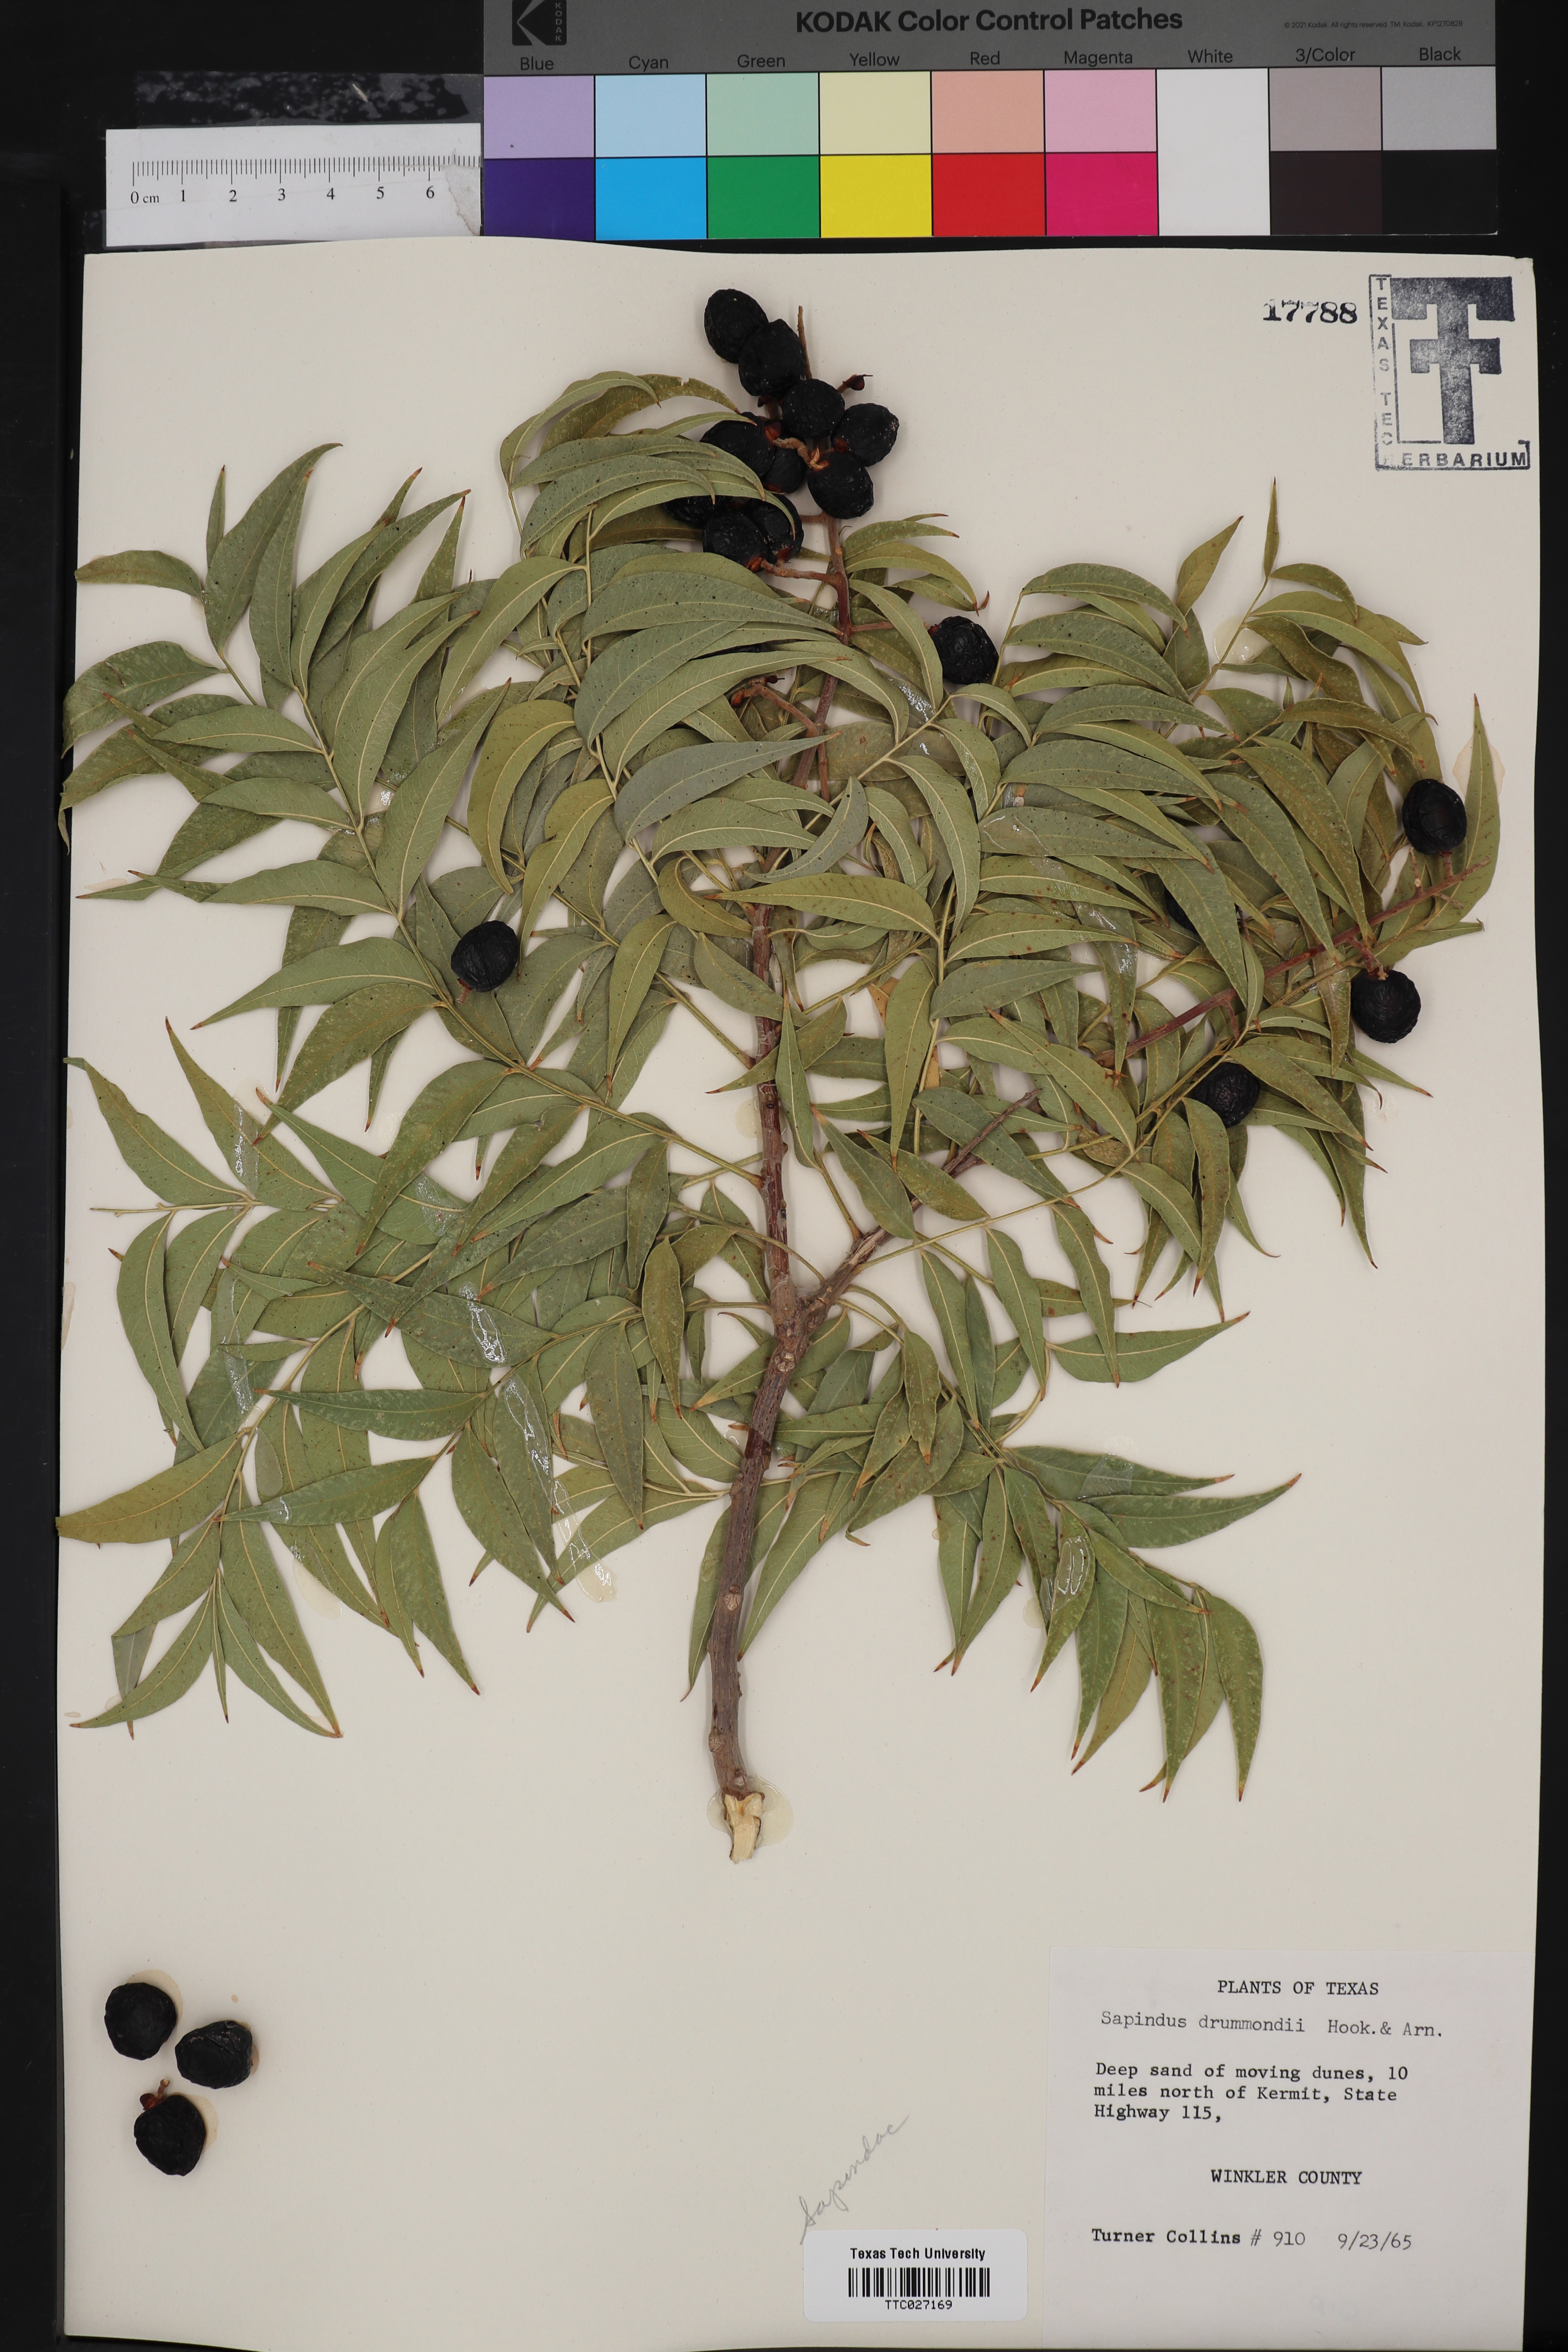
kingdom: Plantae
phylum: Tracheophyta
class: Magnoliopsida
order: Sapindales
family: Sapindaceae
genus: Sapindus
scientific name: Sapindus drummondii
